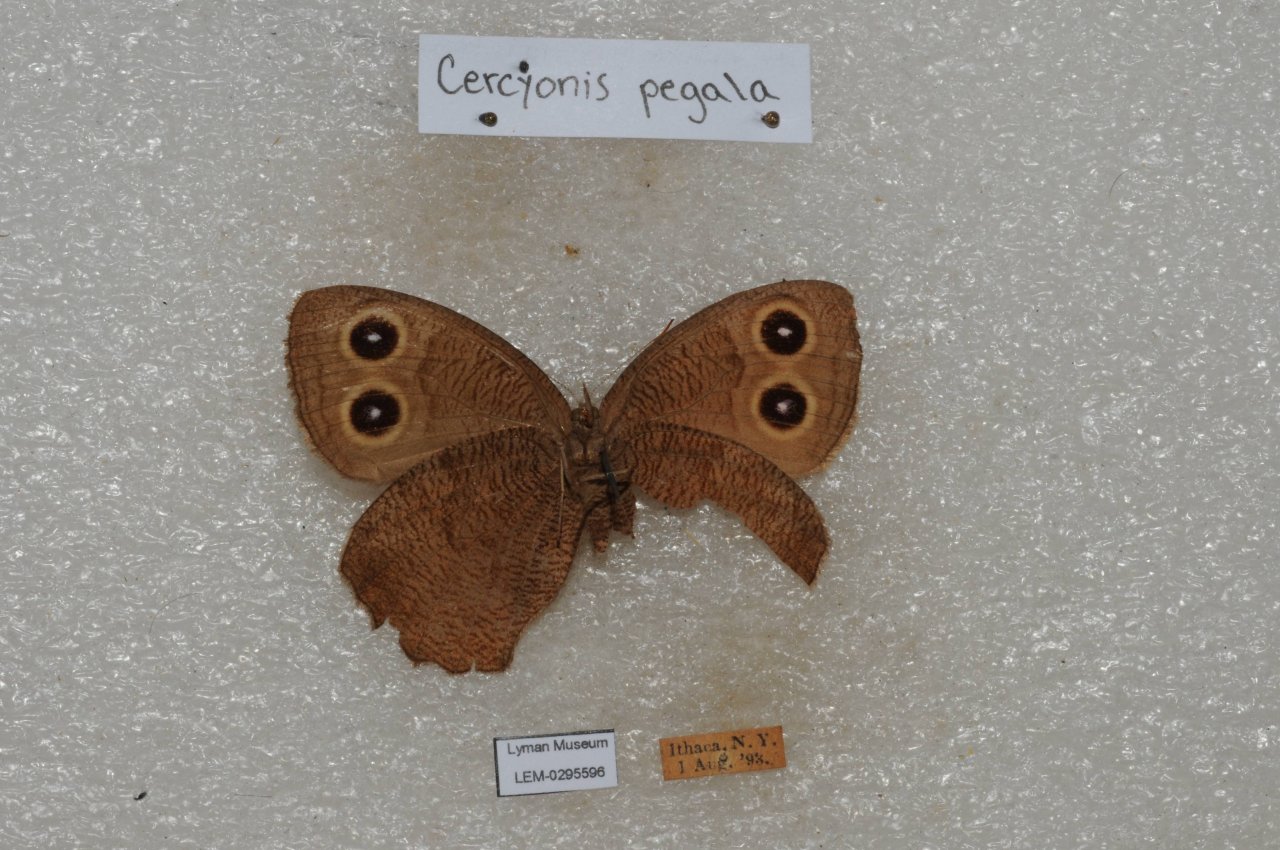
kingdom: Animalia
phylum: Arthropoda
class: Insecta
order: Lepidoptera
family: Nymphalidae
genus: Cercyonis
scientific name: Cercyonis pegala
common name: Common Wood-Nymph
